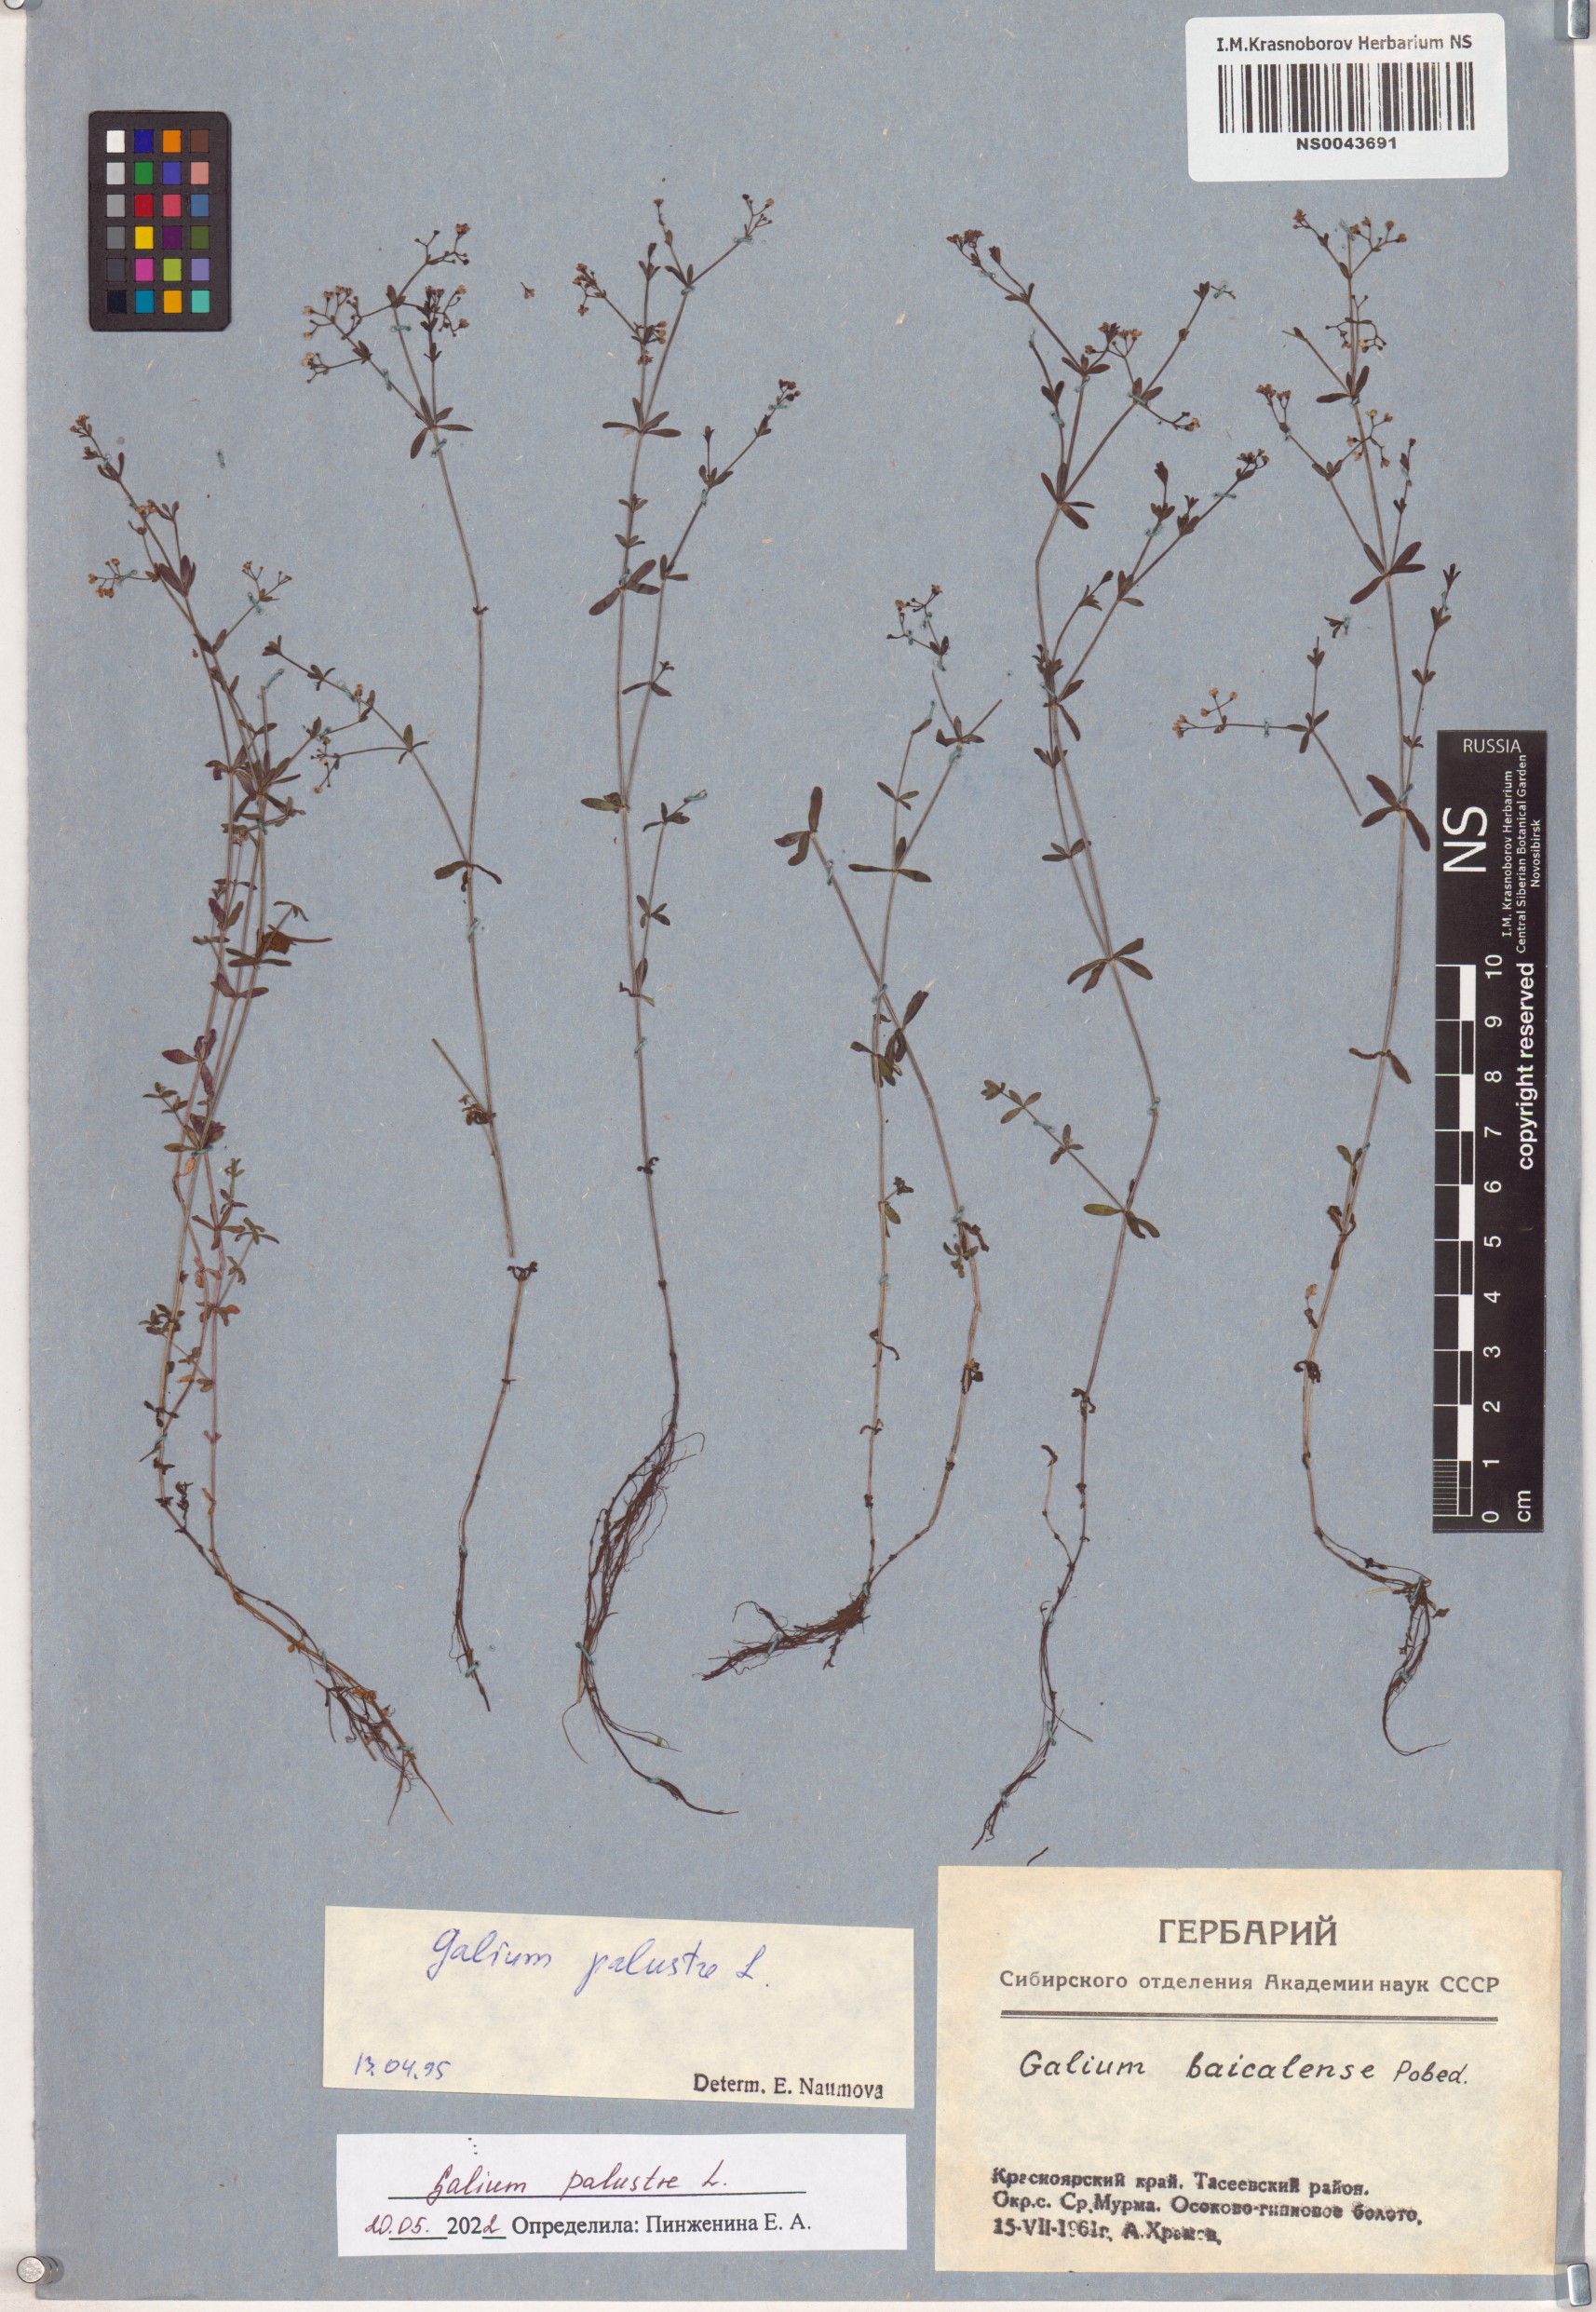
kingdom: Plantae
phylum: Tracheophyta
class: Magnoliopsida
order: Gentianales
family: Rubiaceae
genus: Galium
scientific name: Galium palustre
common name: Common marsh-bedstraw
